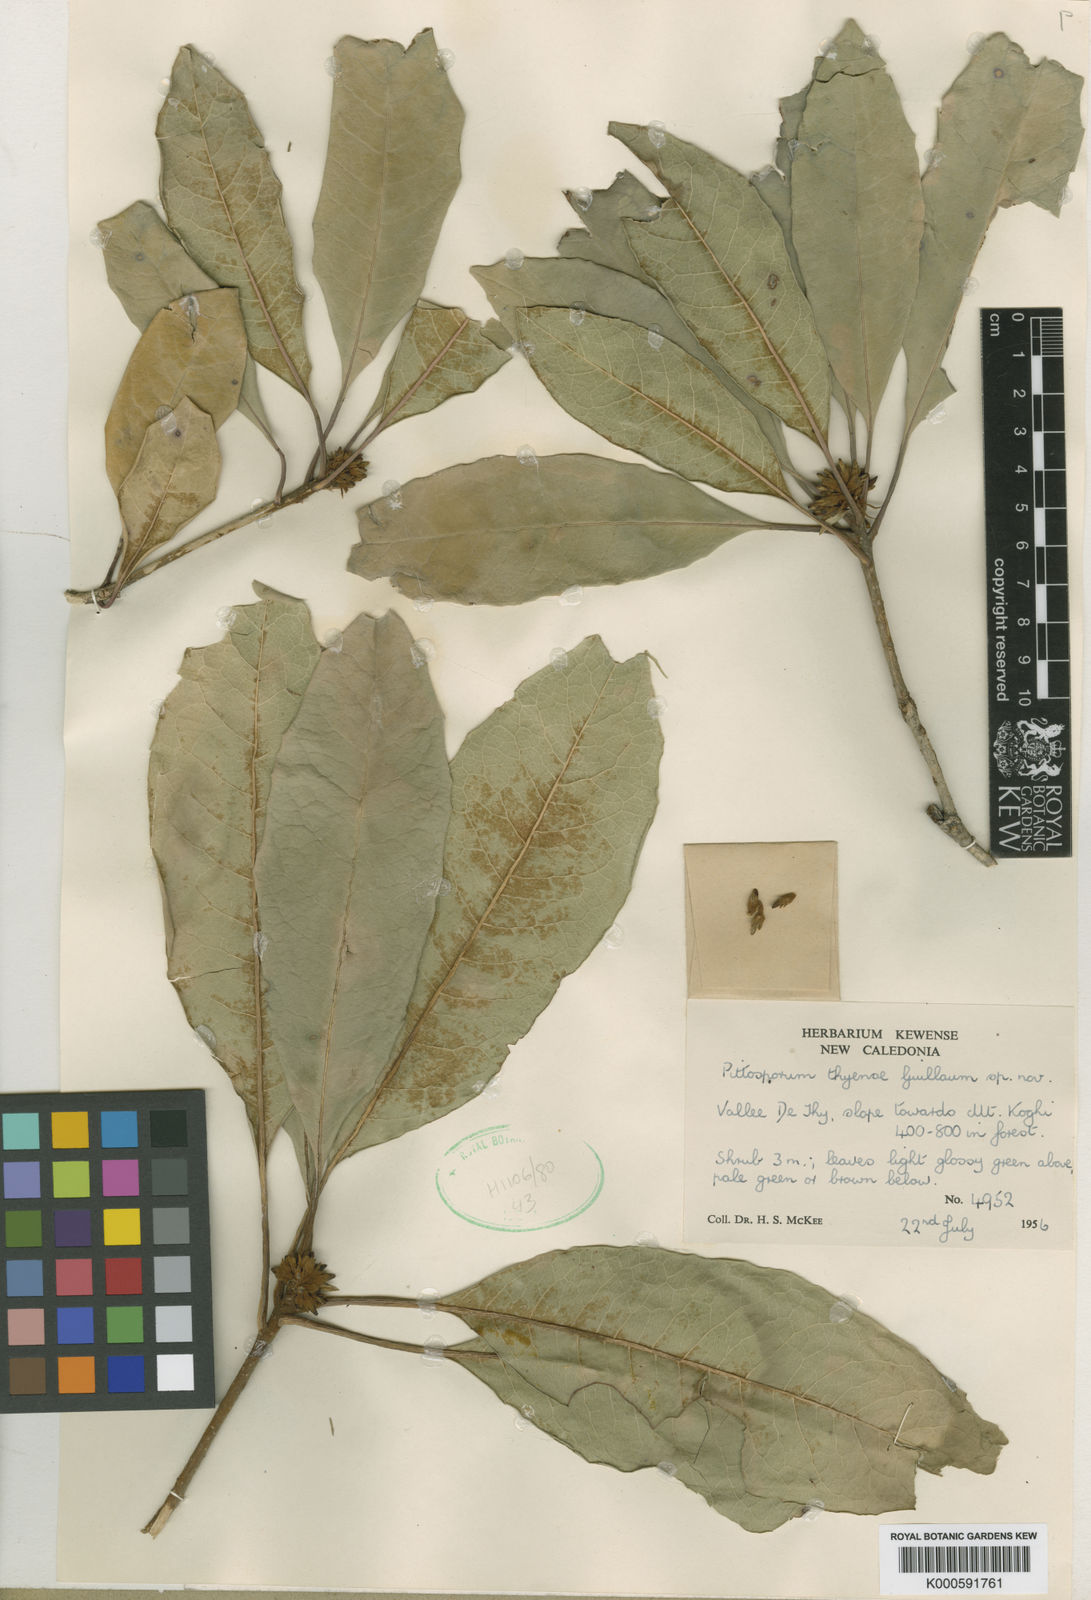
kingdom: Plantae
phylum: Tracheophyta
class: Magnoliopsida
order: Apiales
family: Pittosporaceae
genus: Pittosporum
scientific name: Pittosporum sylvaticum
